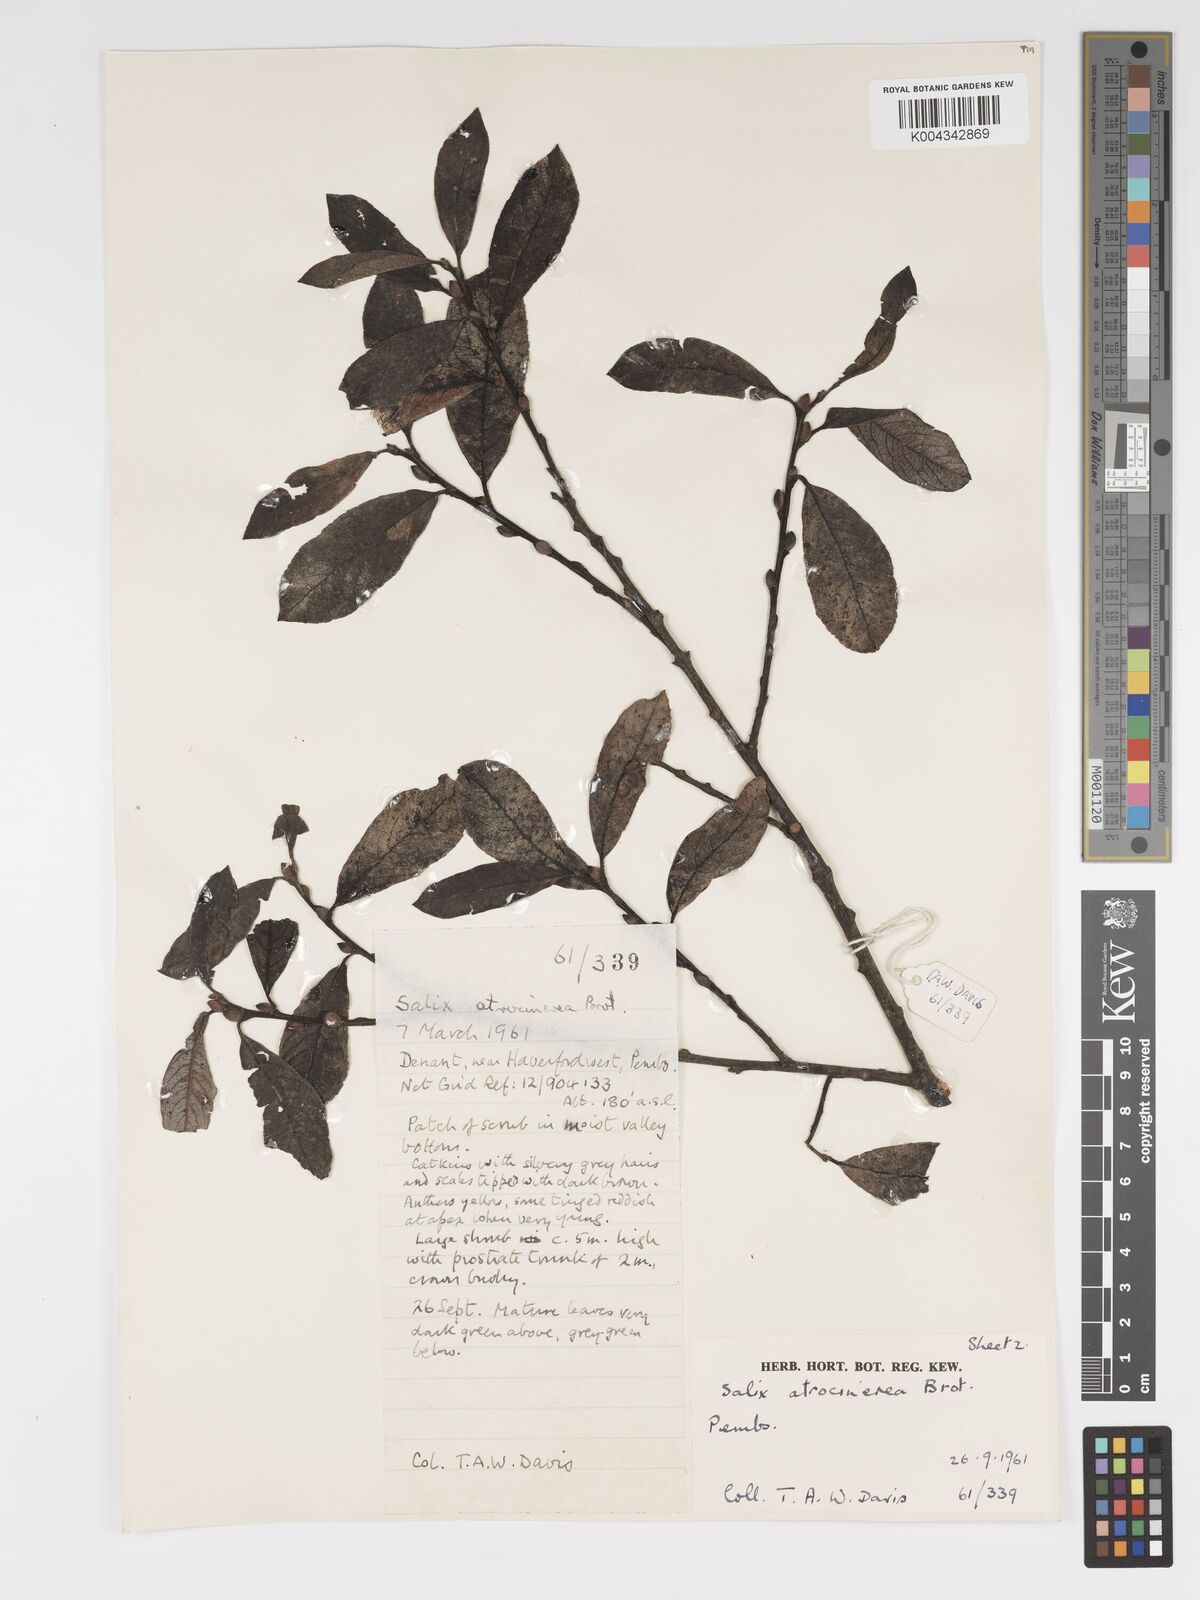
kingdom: Plantae
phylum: Tracheophyta
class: Magnoliopsida
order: Malpighiales
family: Salicaceae
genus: Salix
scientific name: Salix atrocinerea
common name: Rusty willow
